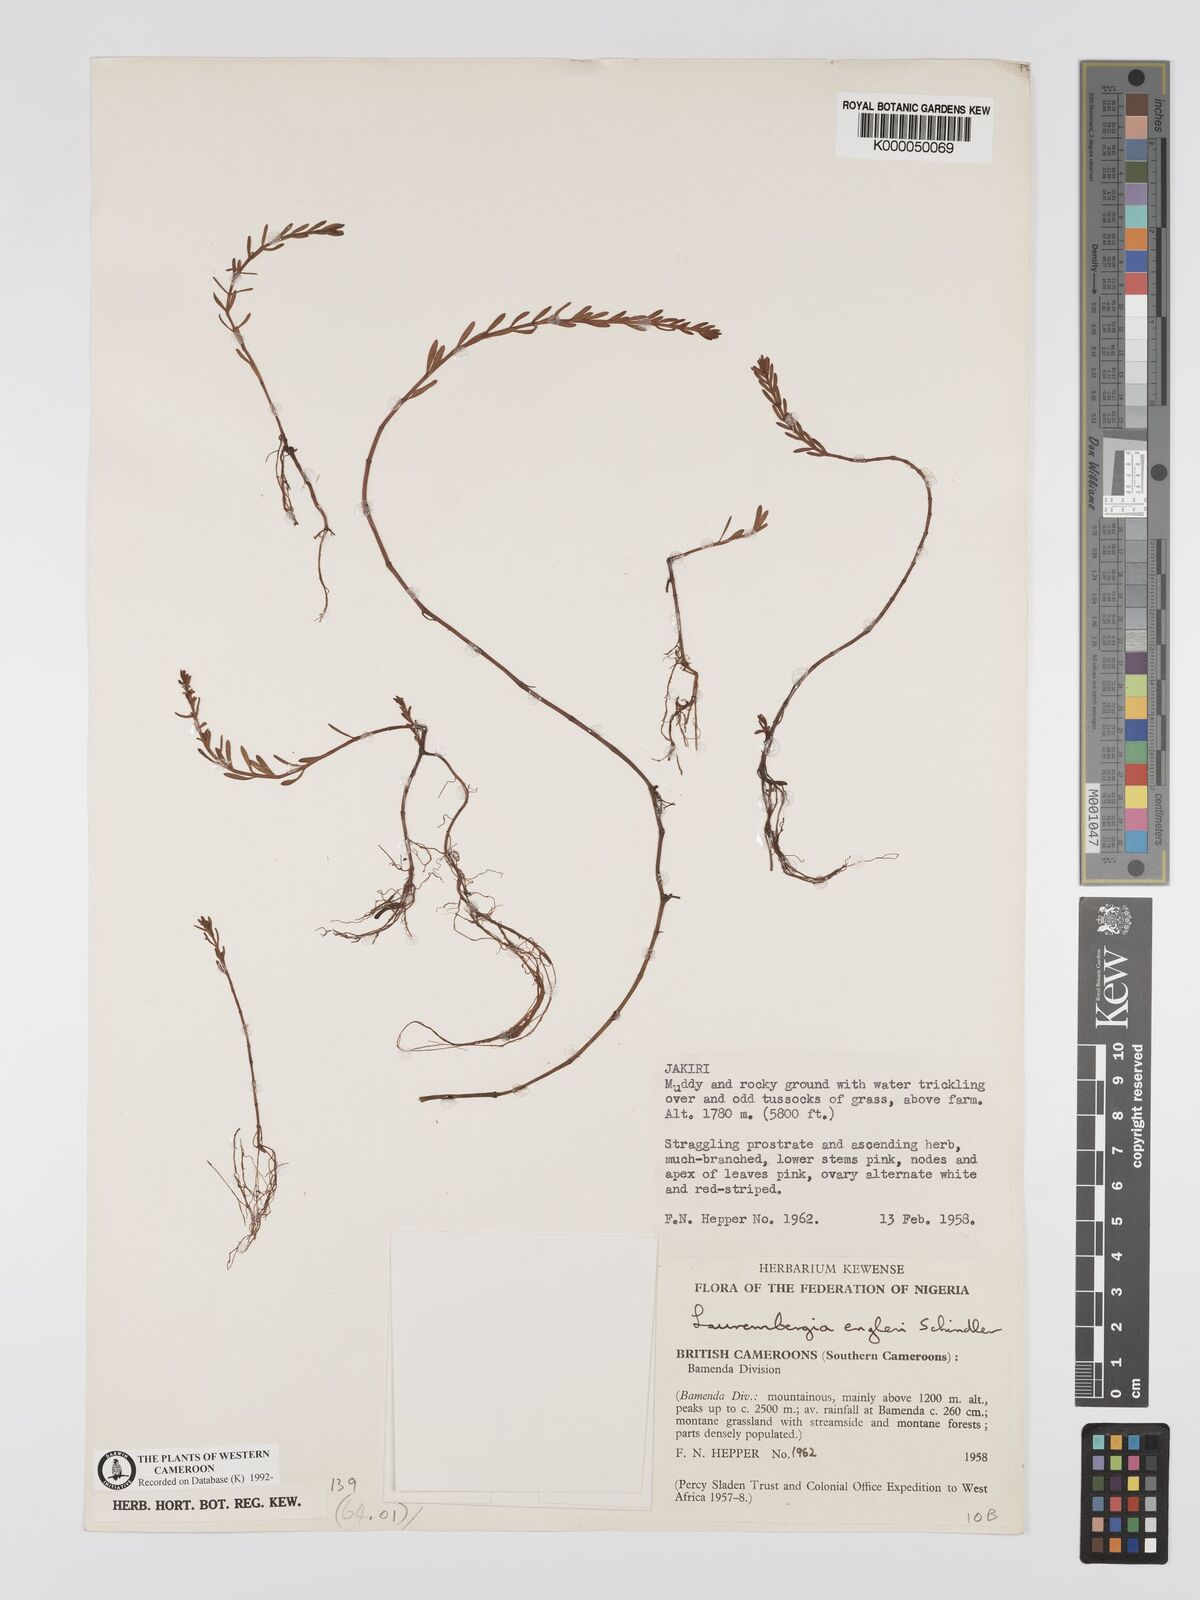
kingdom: Plantae
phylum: Tracheophyta
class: Magnoliopsida
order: Saxifragales
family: Haloragaceae
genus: Laurembergia
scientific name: Laurembergia tetrandra
